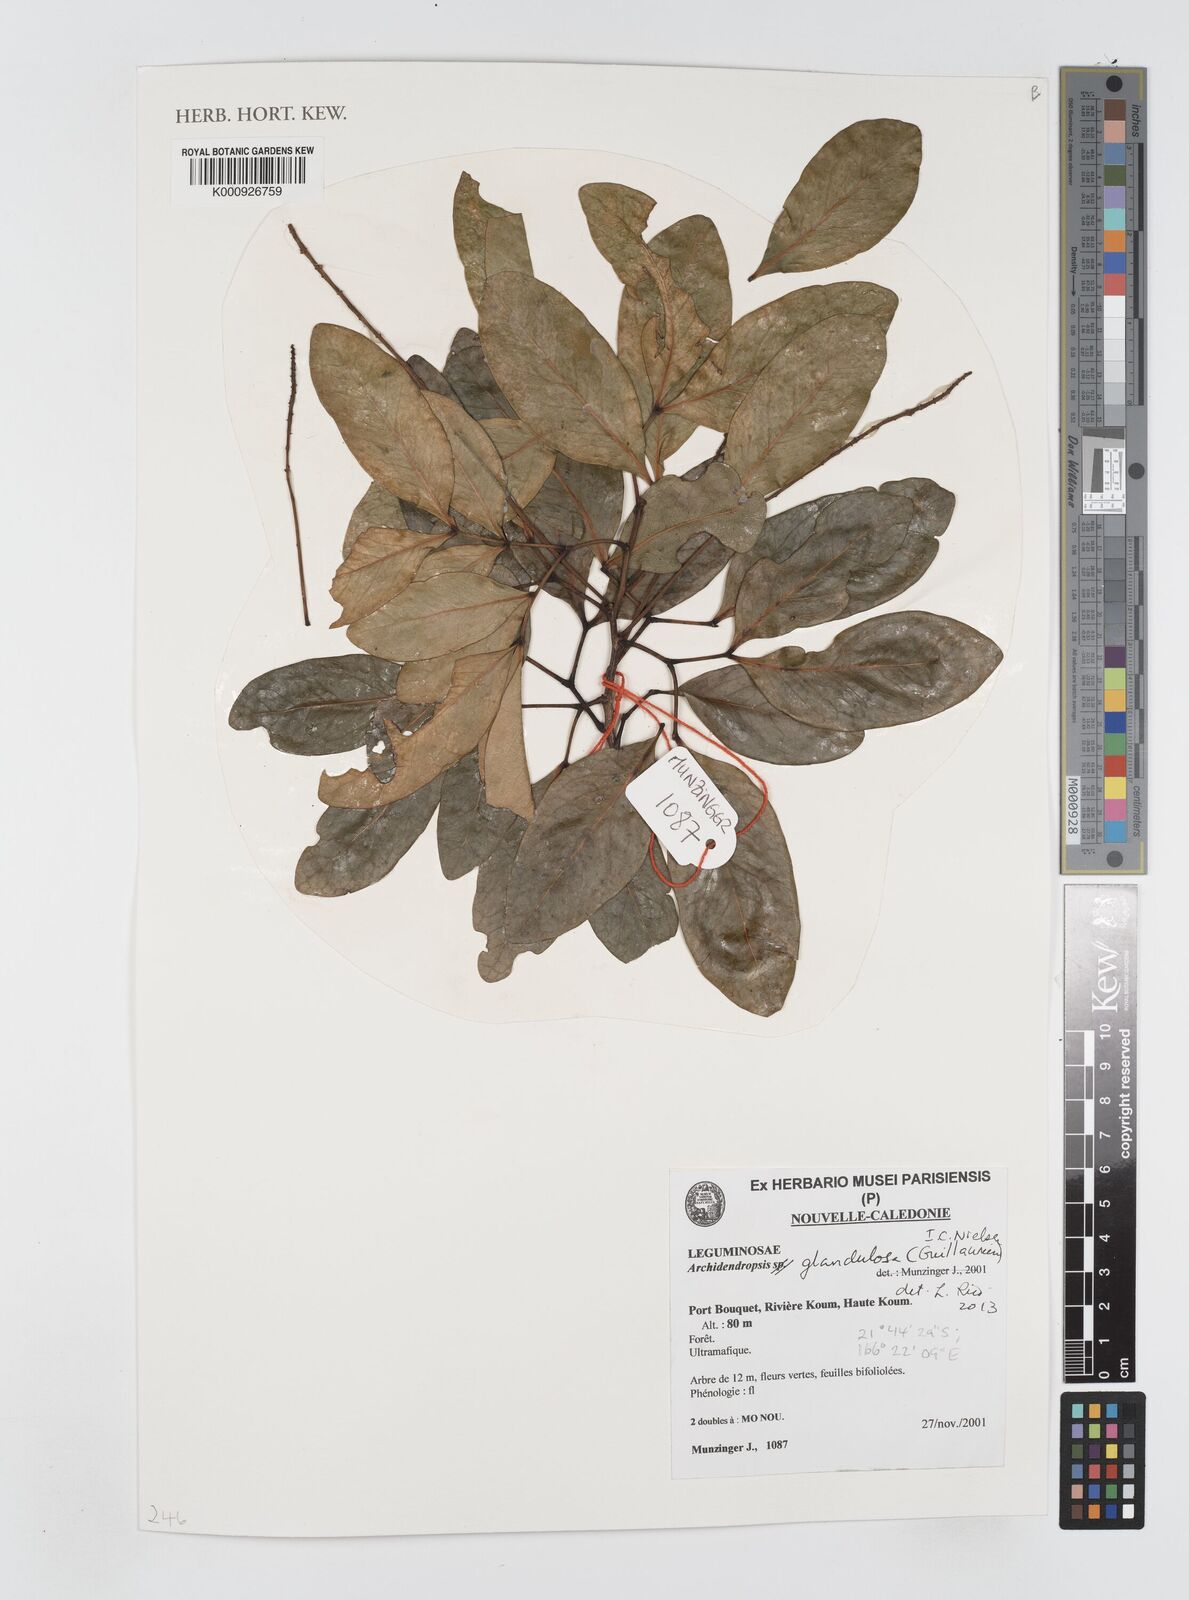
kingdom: Plantae
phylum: Tracheophyta
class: Magnoliopsida
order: Fabales
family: Fabaceae
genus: Archidendropsis
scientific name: Archidendropsis glandulosa
